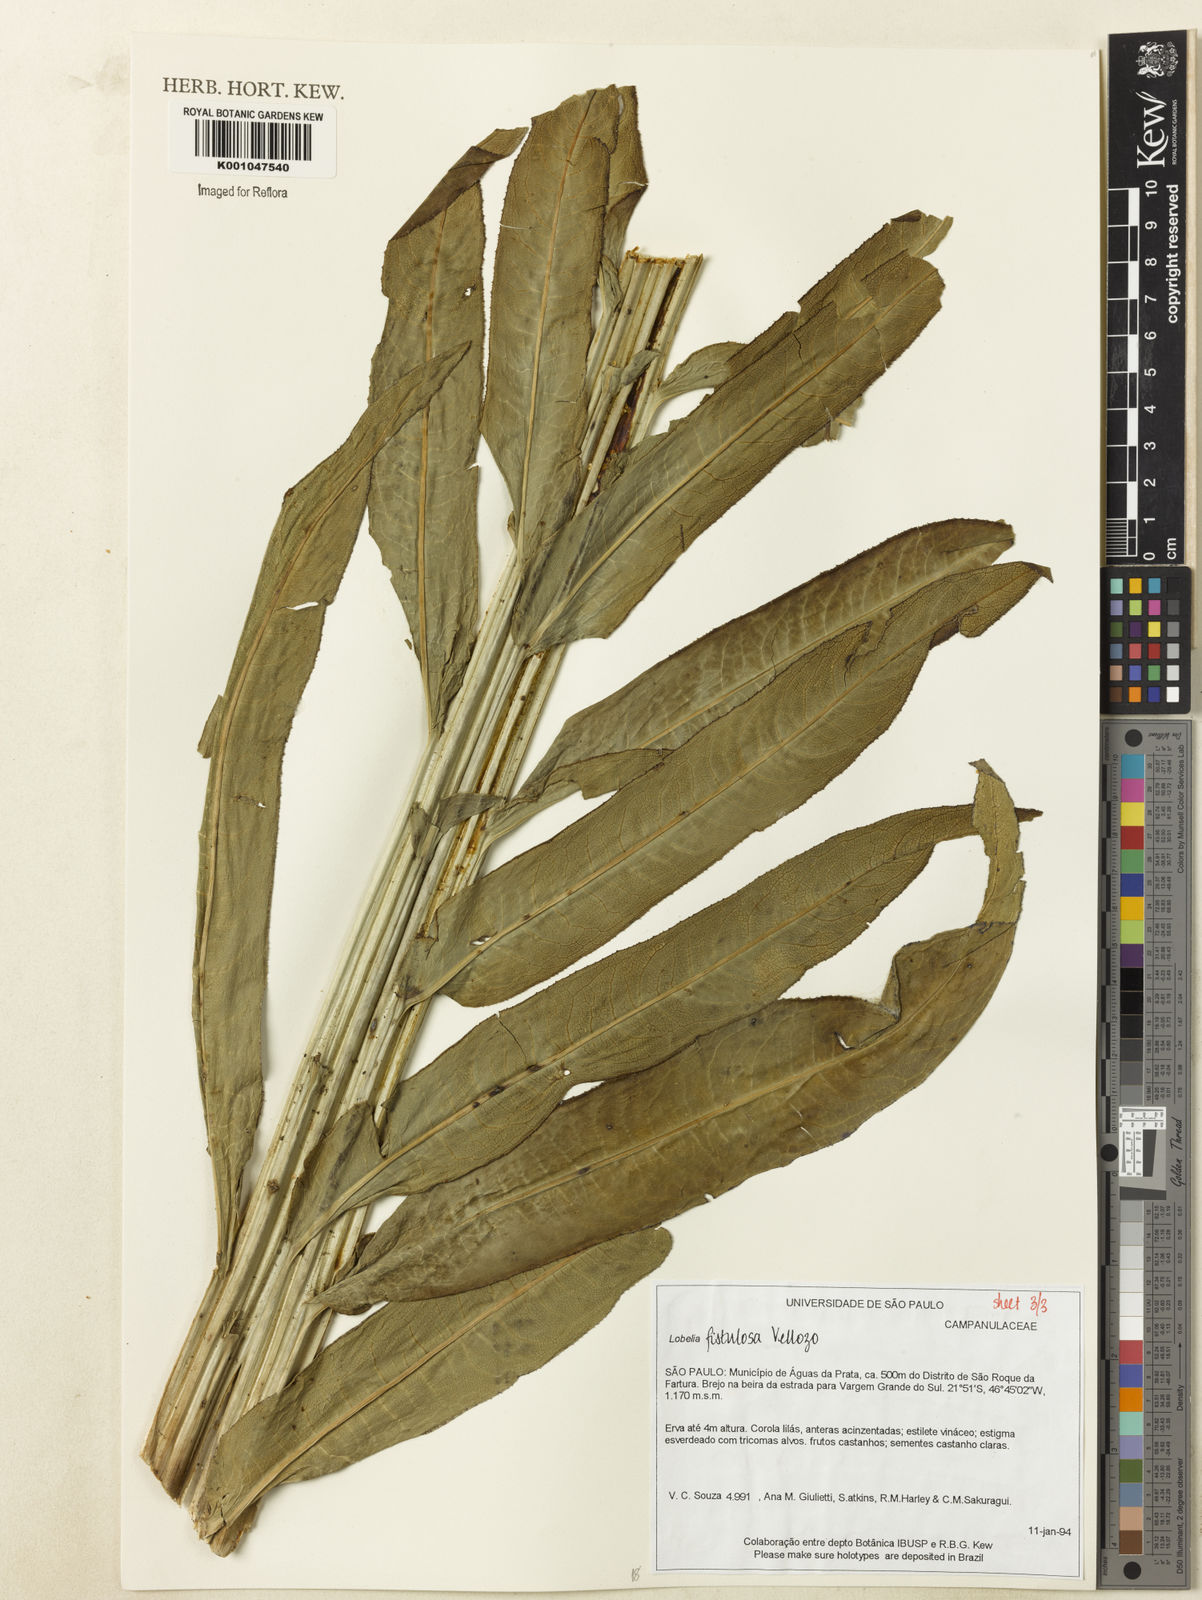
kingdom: Plantae
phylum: Tracheophyta
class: Magnoliopsida
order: Asterales
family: Campanulaceae
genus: Lobelia
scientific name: Lobelia fistulosa
